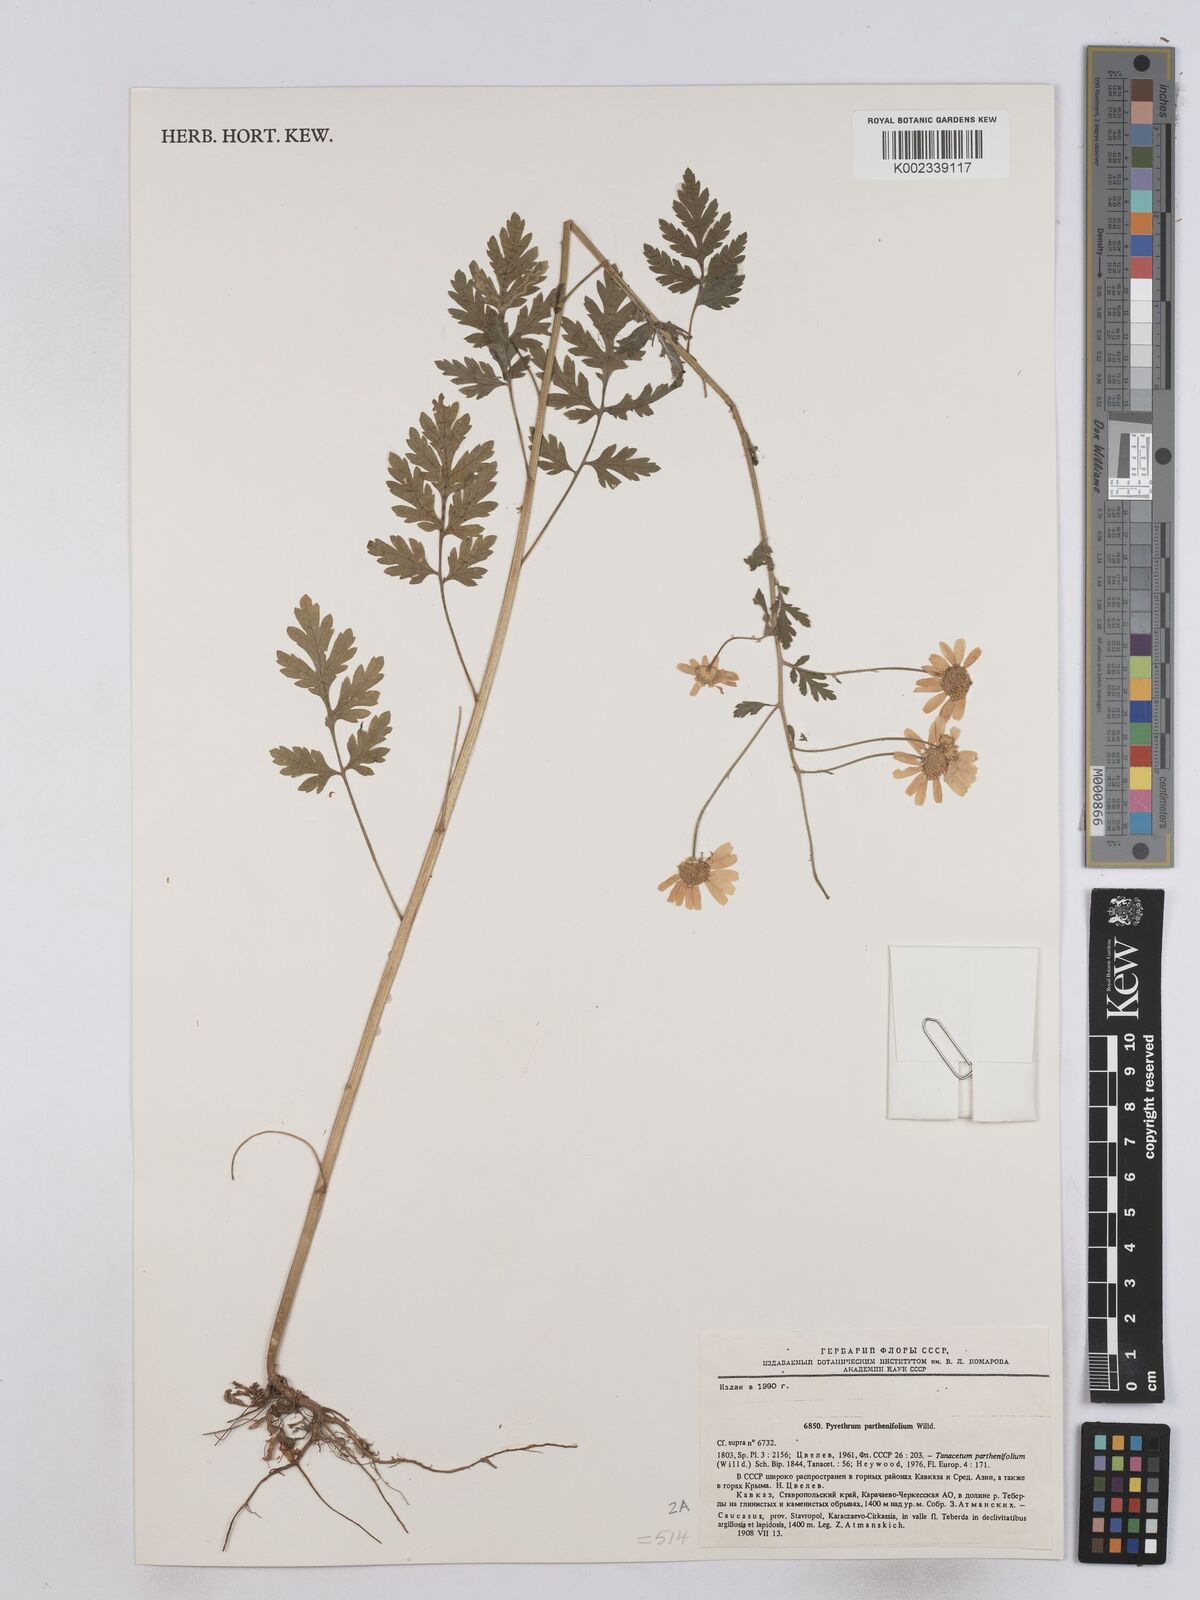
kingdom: Plantae
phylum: Tracheophyta
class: Magnoliopsida
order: Asterales
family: Asteraceae
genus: Tanacetum
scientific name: Tanacetum partheniifolium
